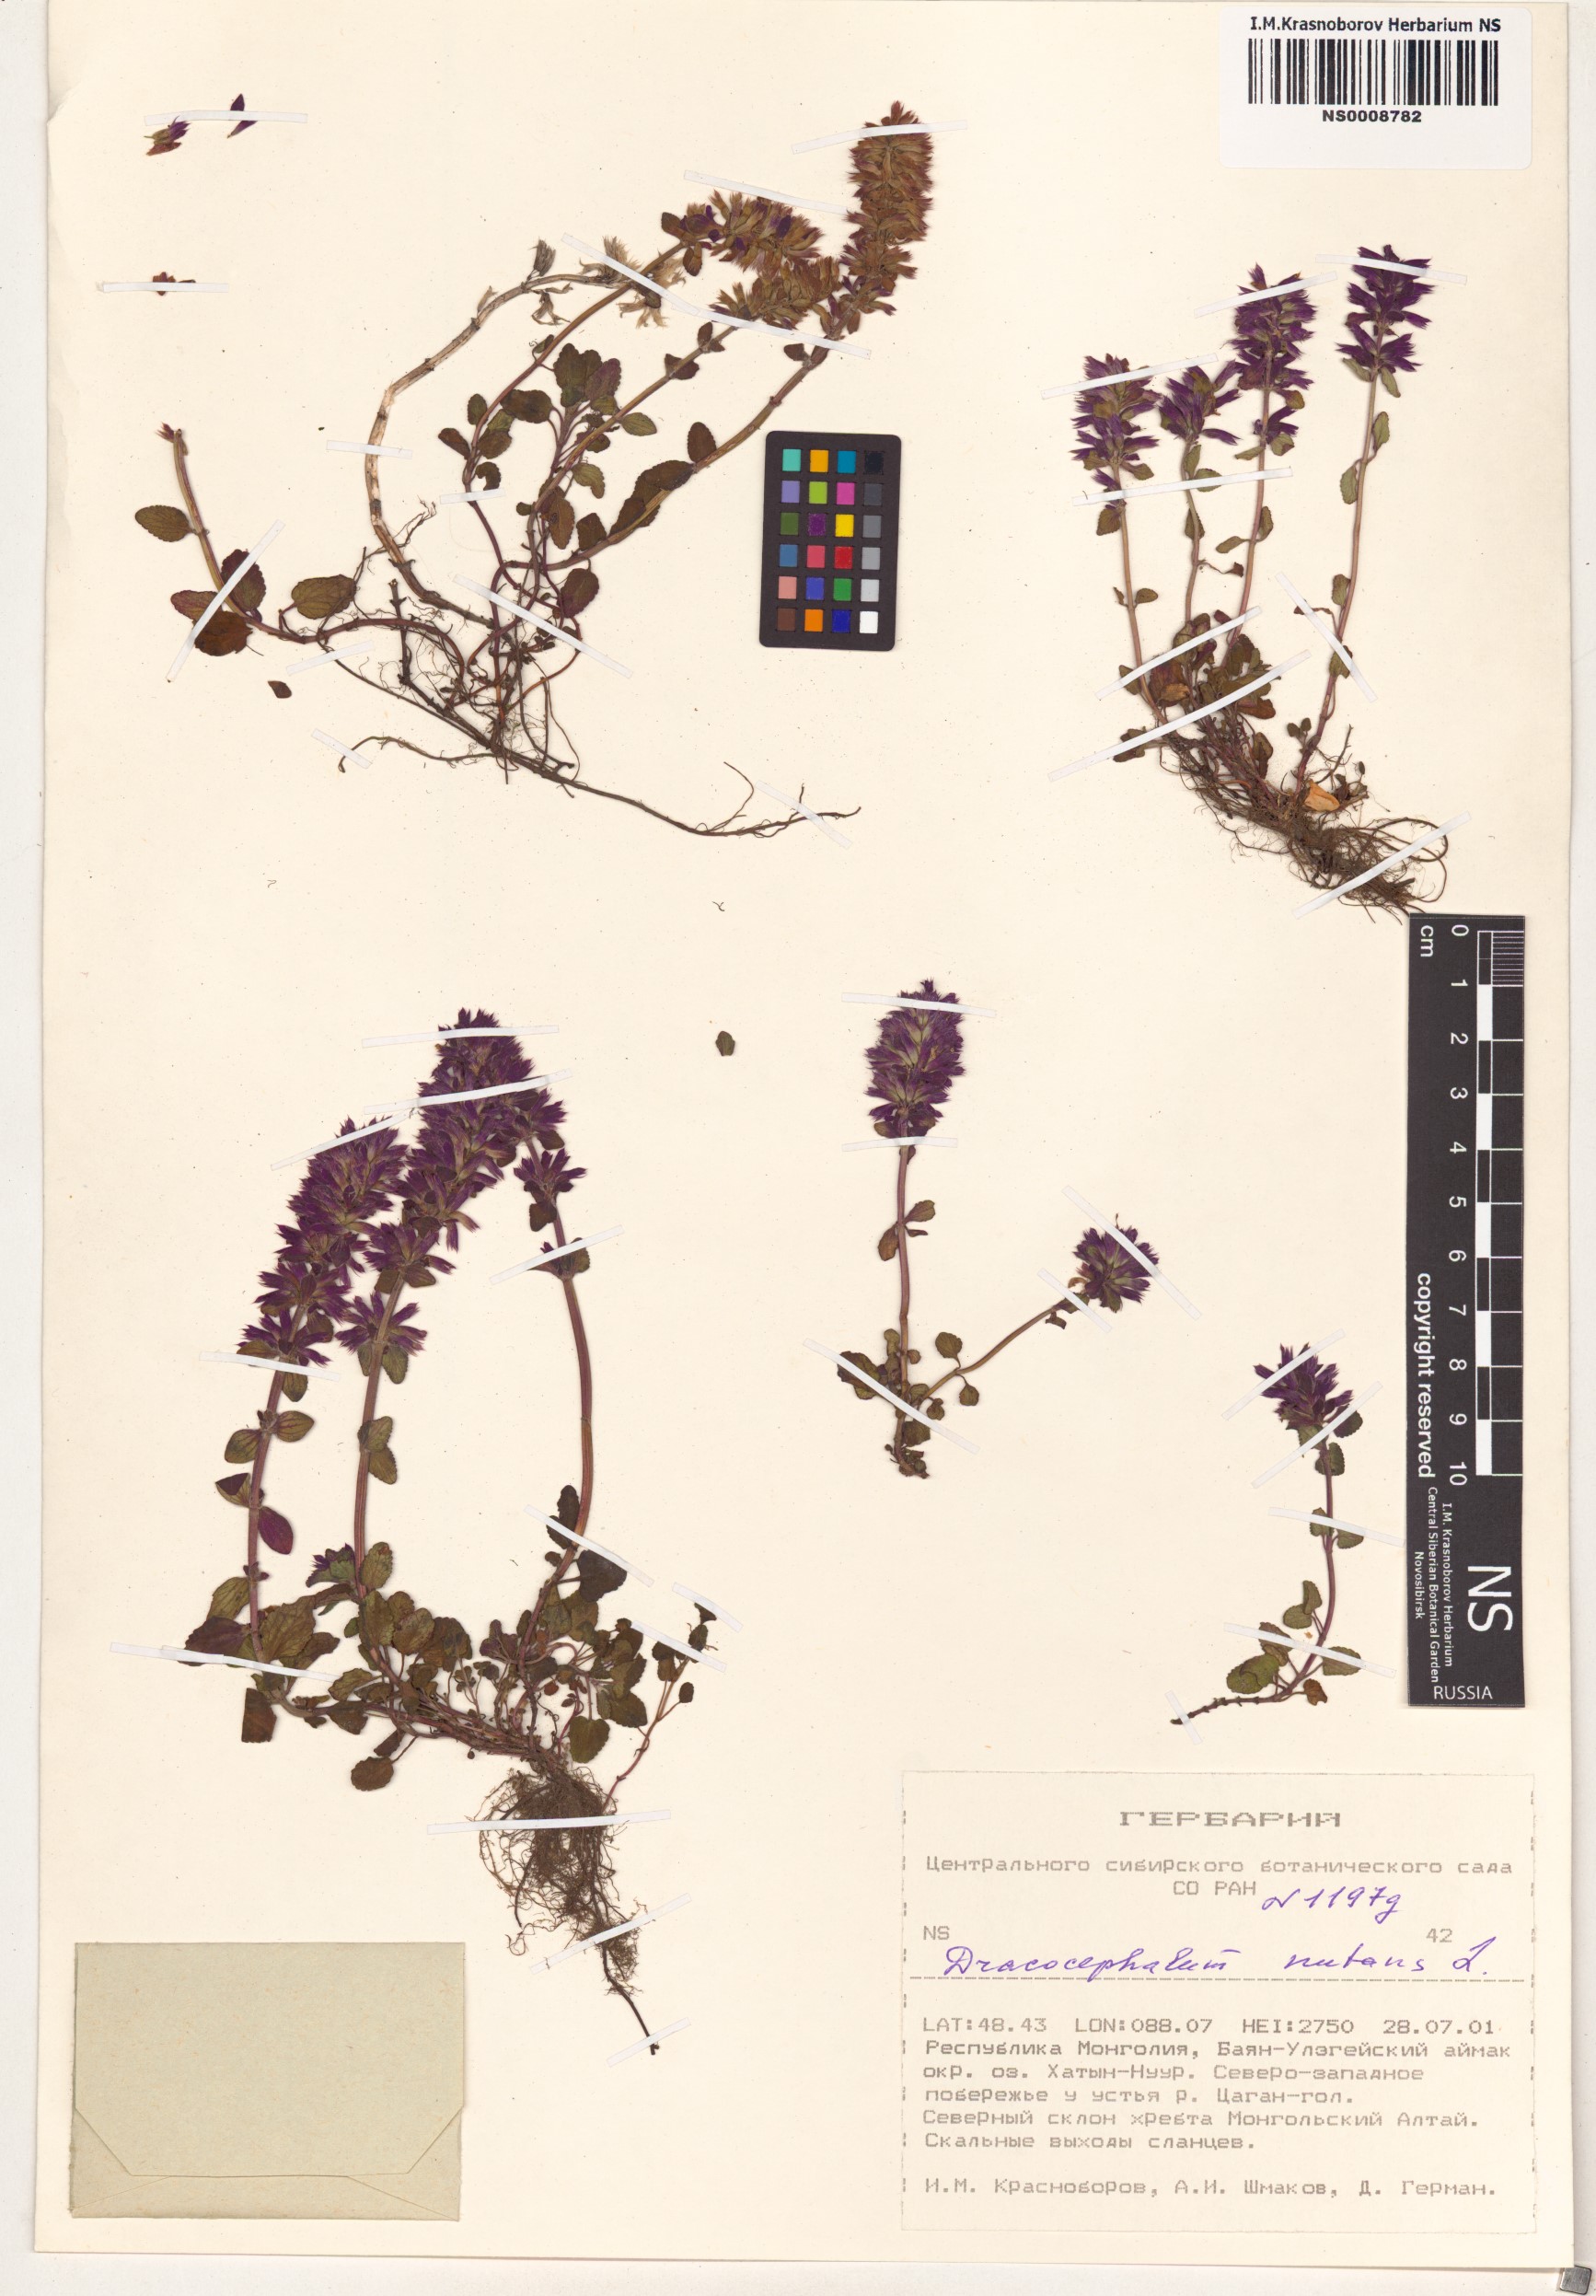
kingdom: Plantae
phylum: Tracheophyta
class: Magnoliopsida
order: Lamiales
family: Lamiaceae
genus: Dracocephalum
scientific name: Dracocephalum nutans
